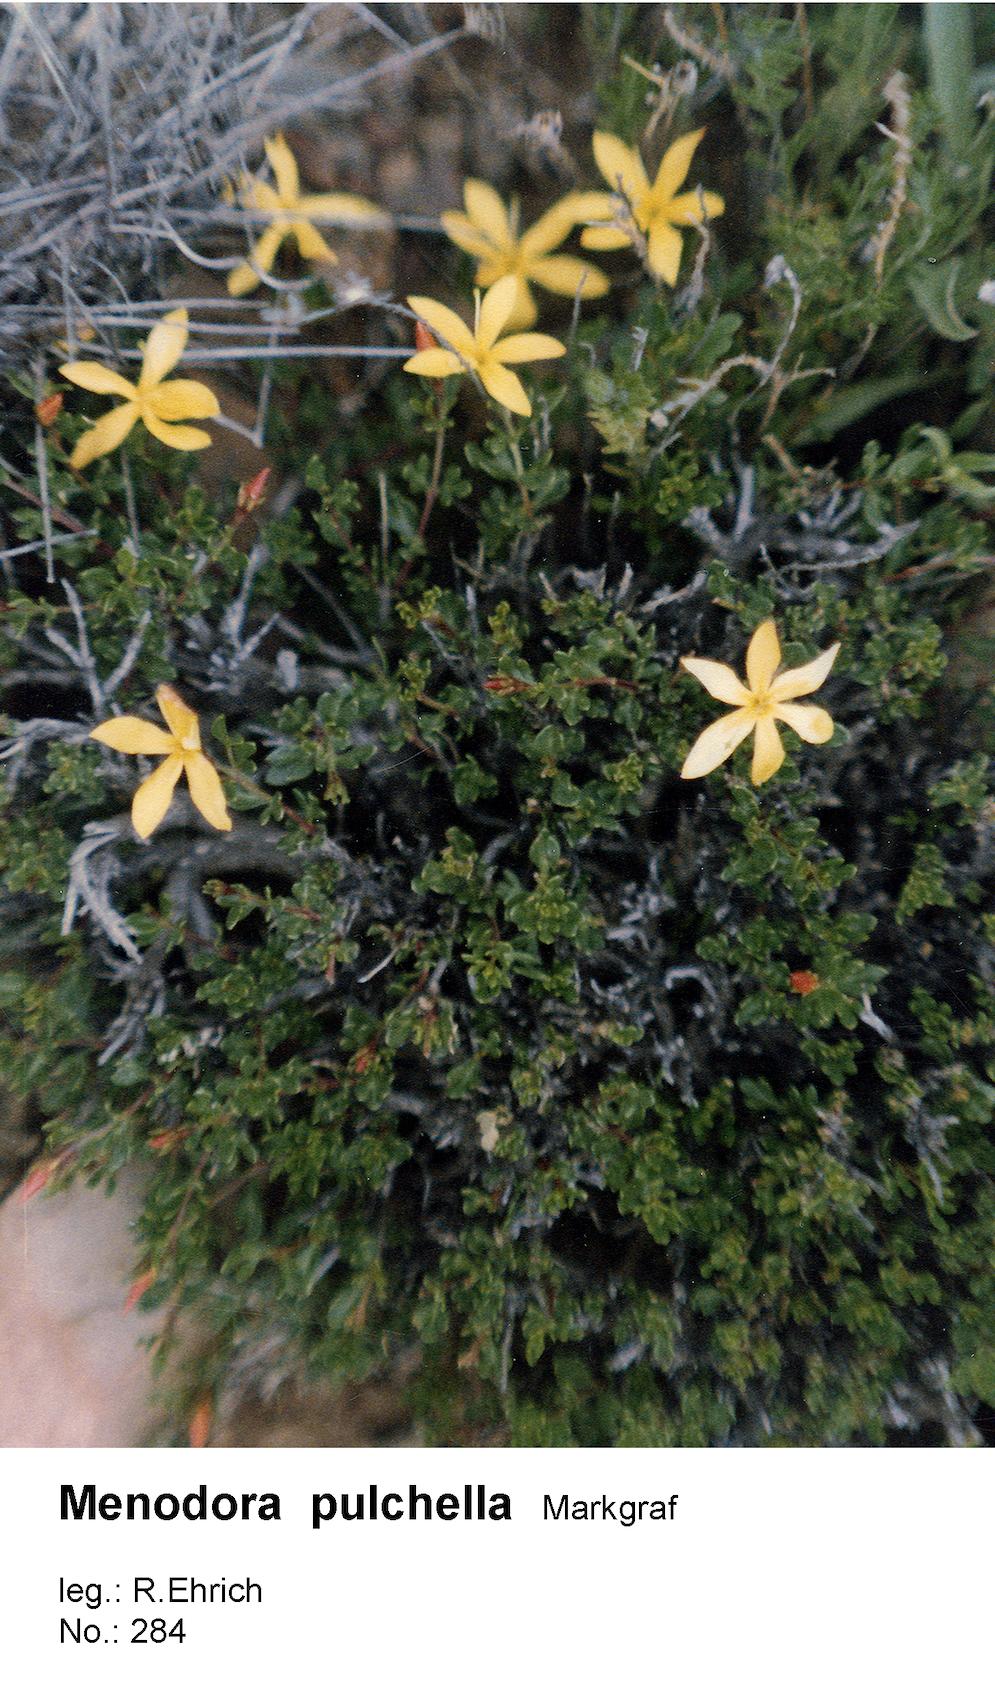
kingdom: Plantae
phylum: Tracheophyta
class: Magnoliopsida
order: Lamiales
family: Oleaceae
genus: Menodora
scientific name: Menodora pulchella
